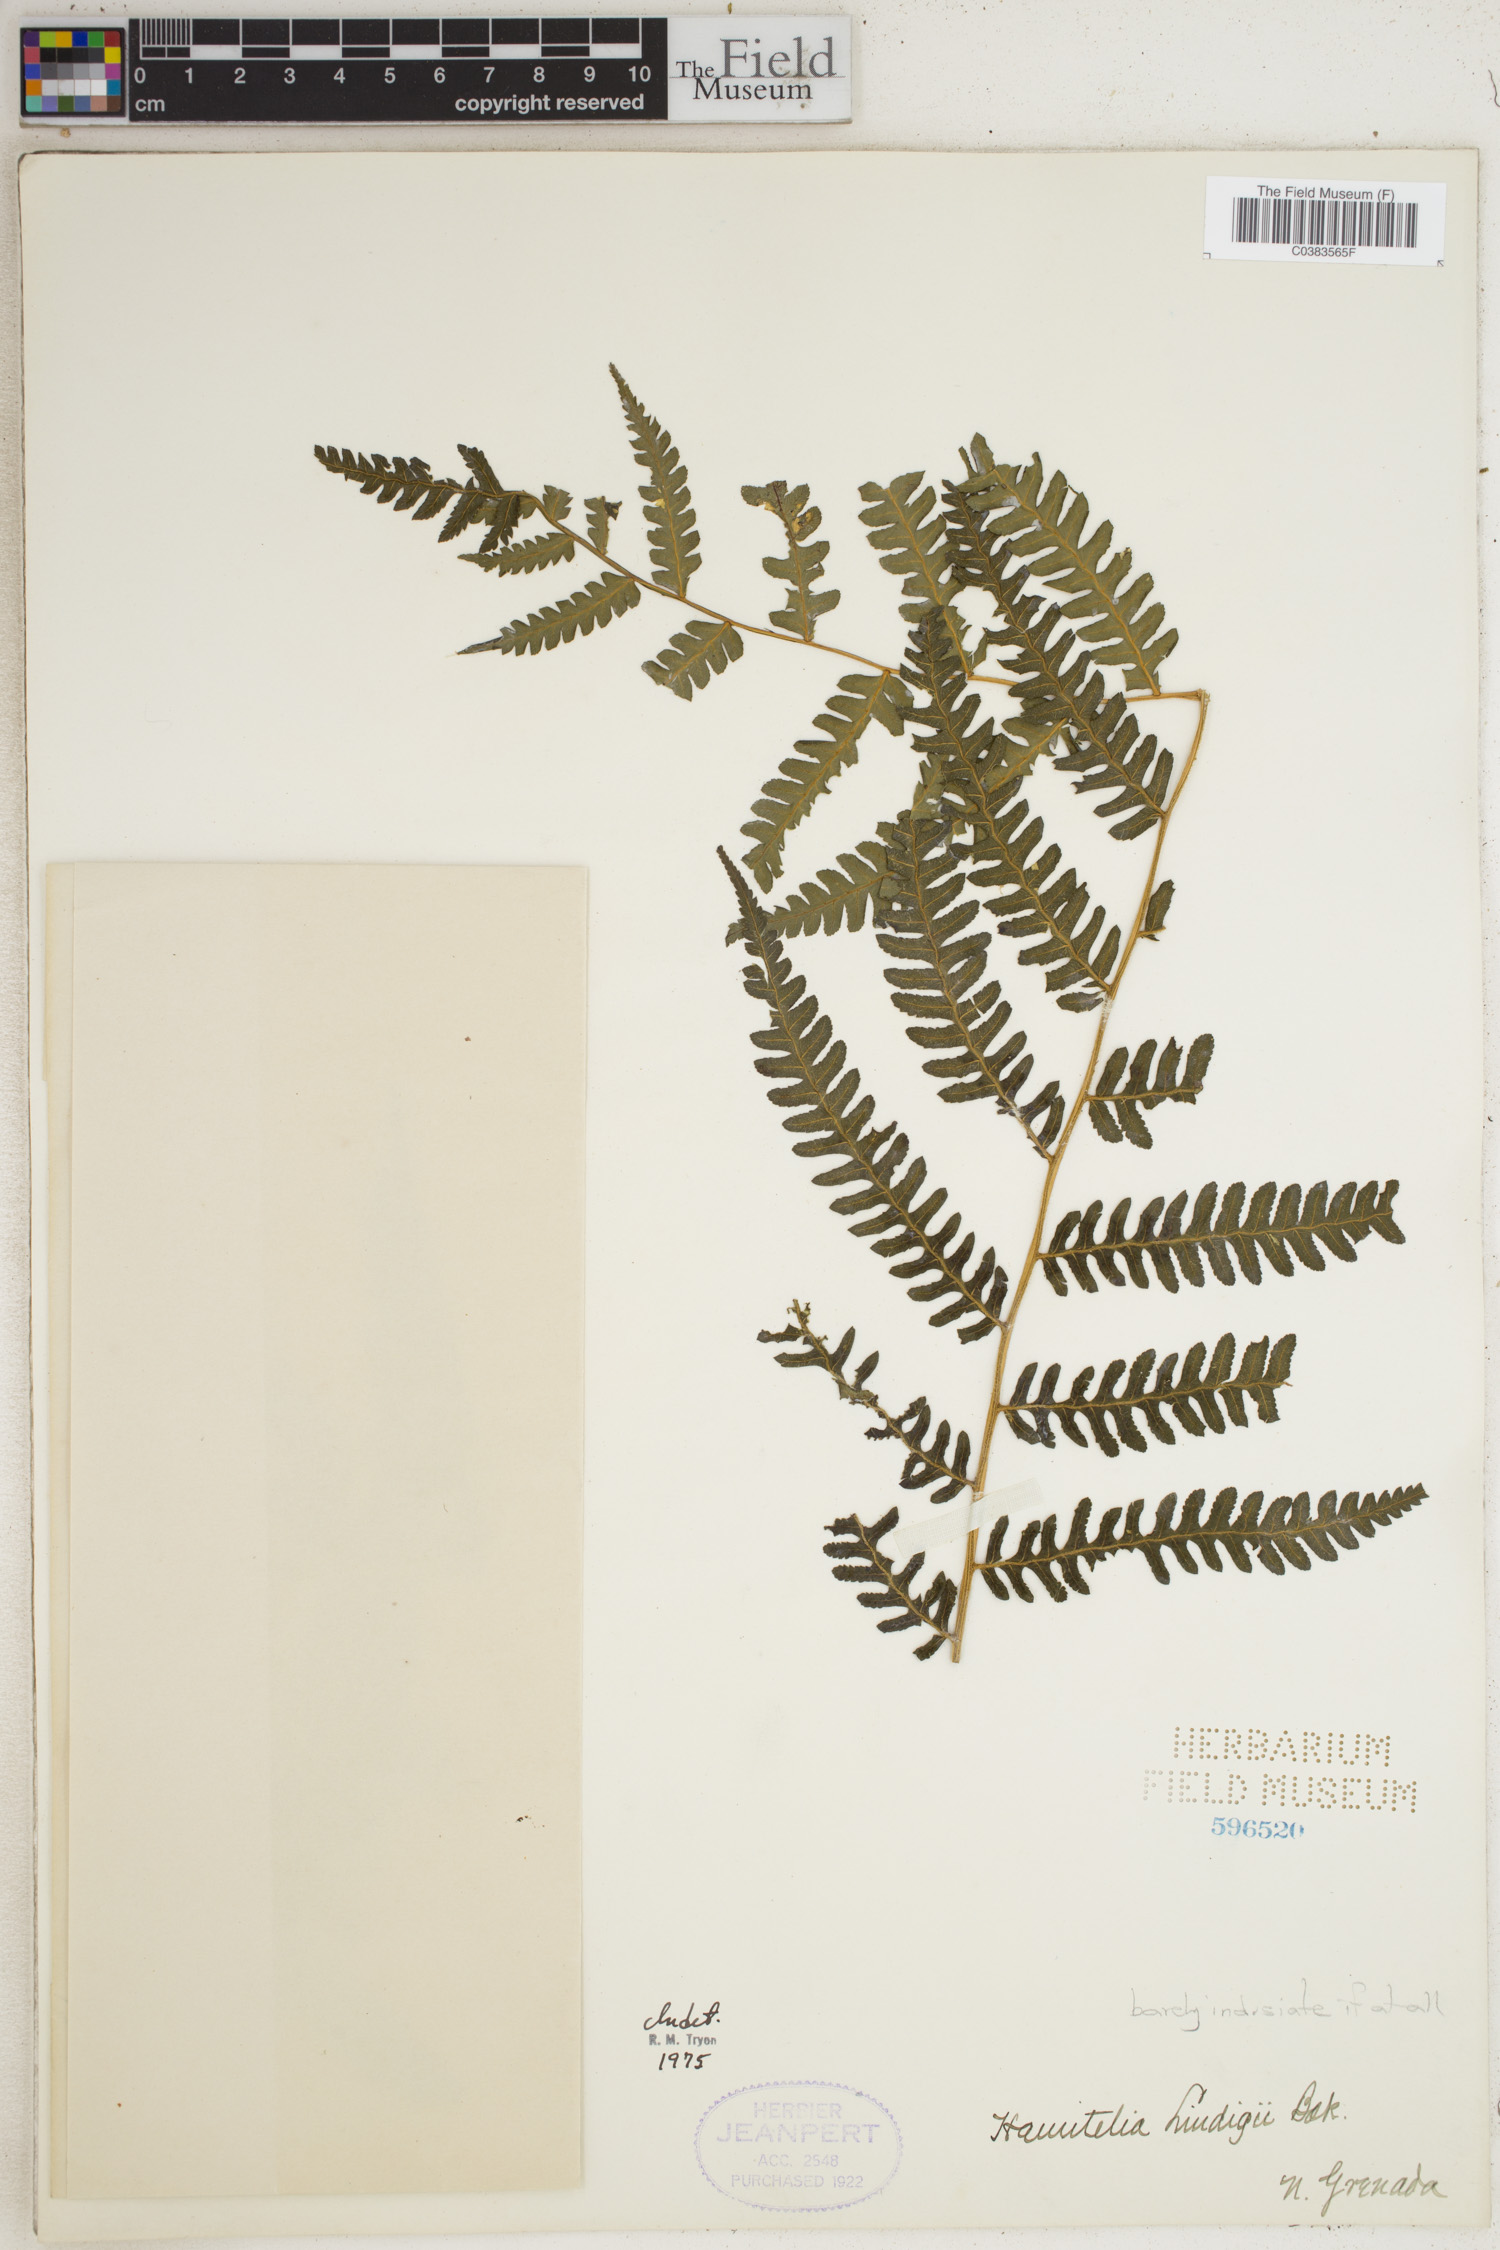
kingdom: Plantae
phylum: Tracheophyta
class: Polypodiopsida
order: Cyatheales
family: Cyatheaceae
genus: Cyathea
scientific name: Cyathea lindigii
